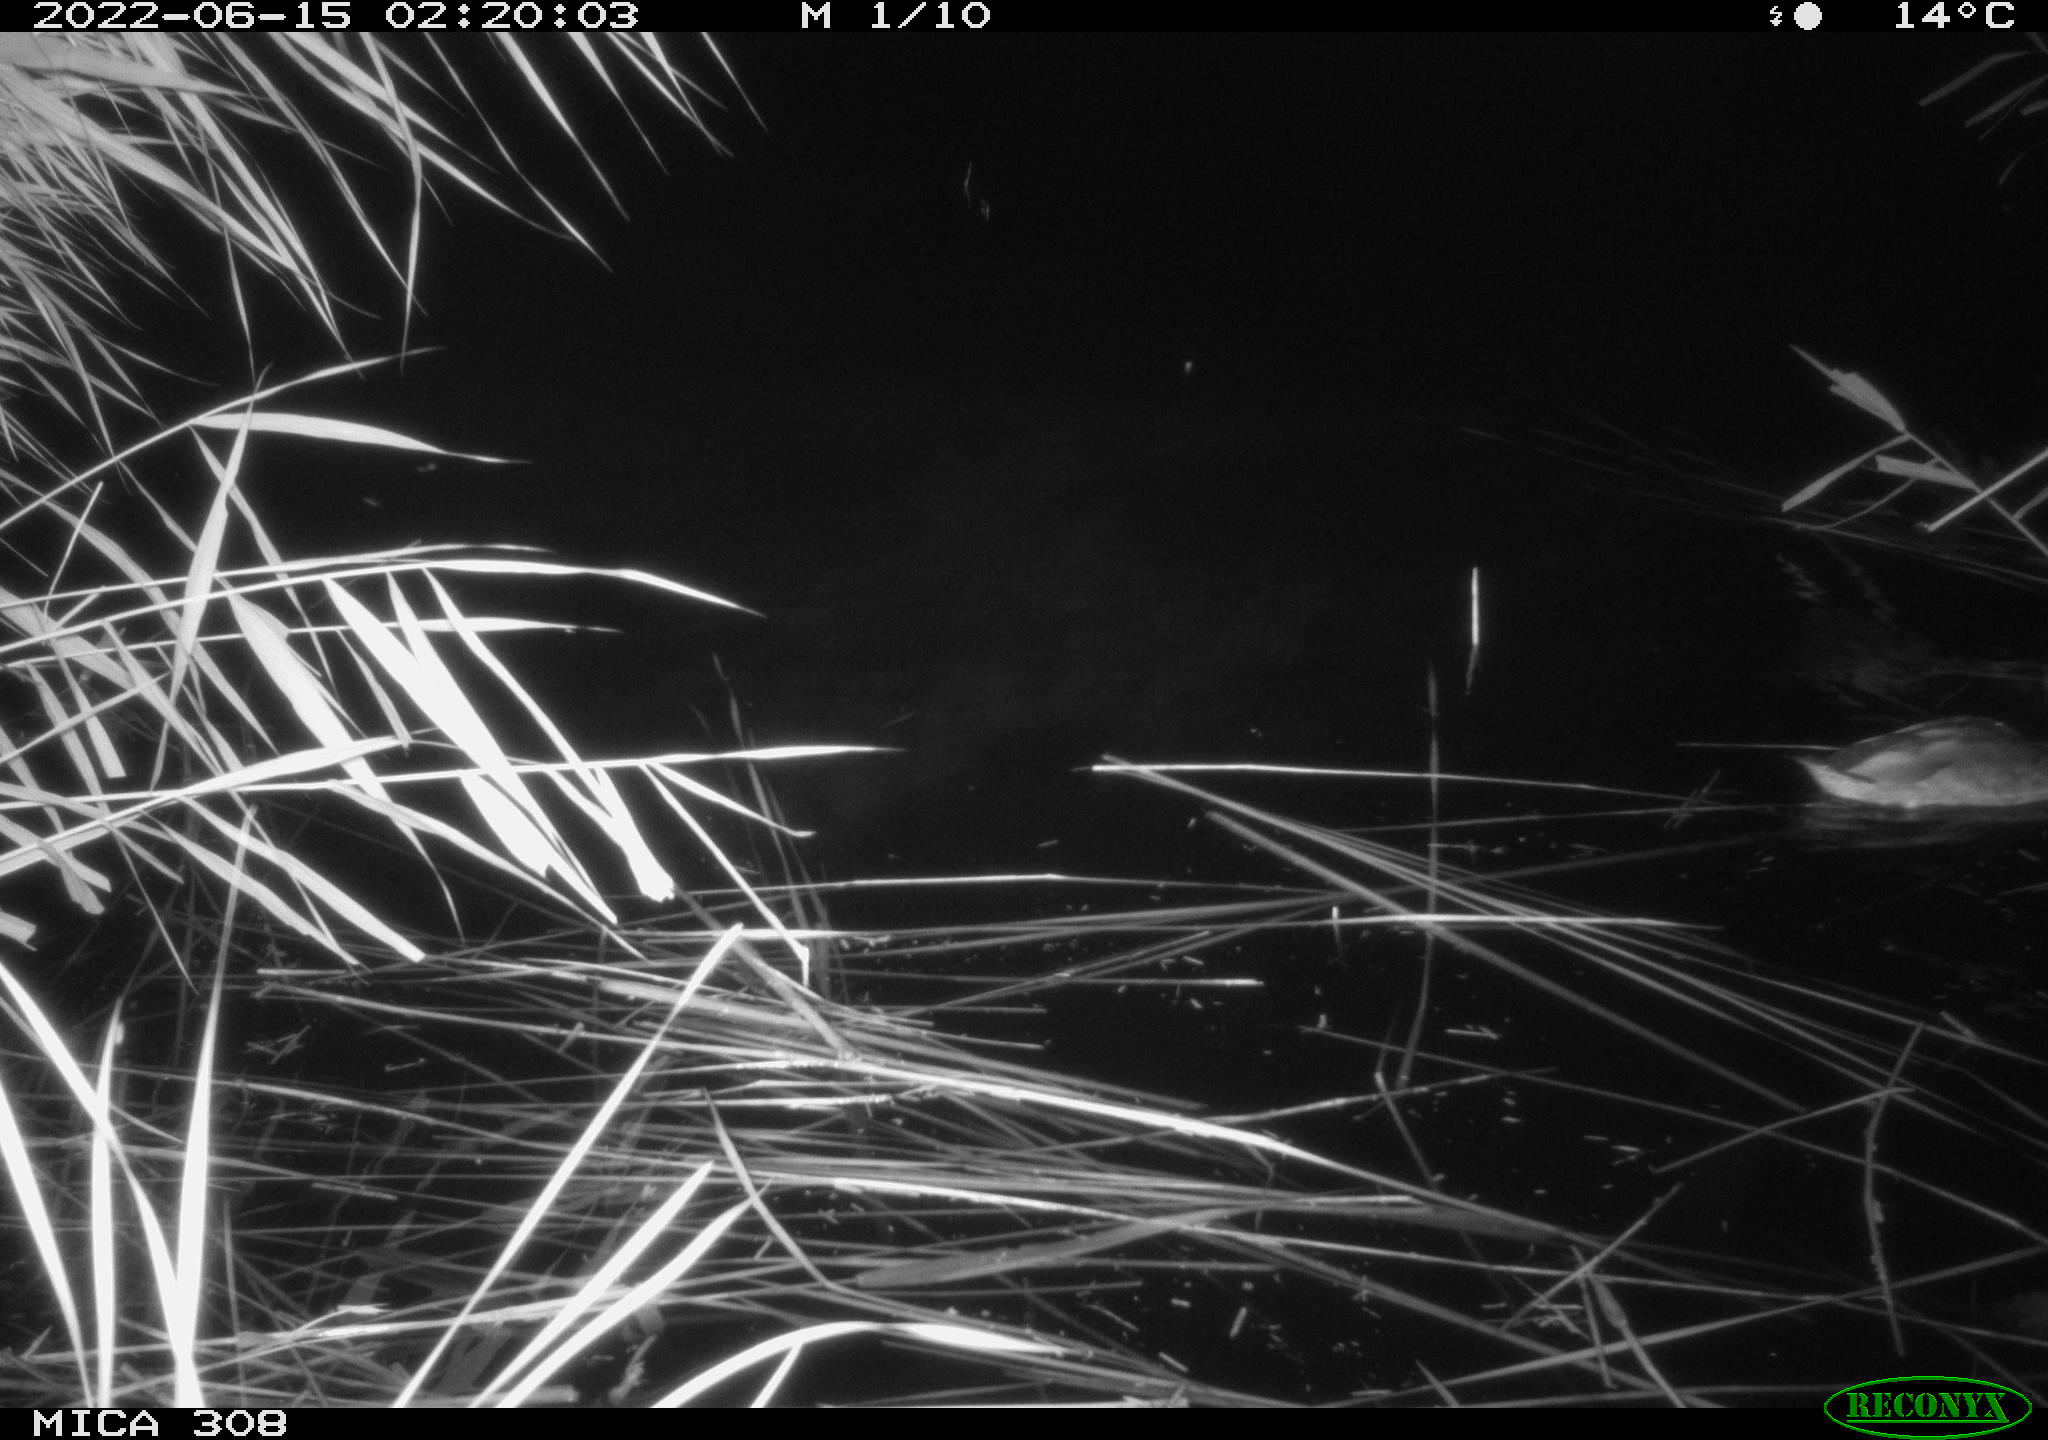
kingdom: Animalia
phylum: Chordata
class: Aves
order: Anseriformes
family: Anatidae
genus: Anas
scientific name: Anas platyrhynchos
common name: Mallard
